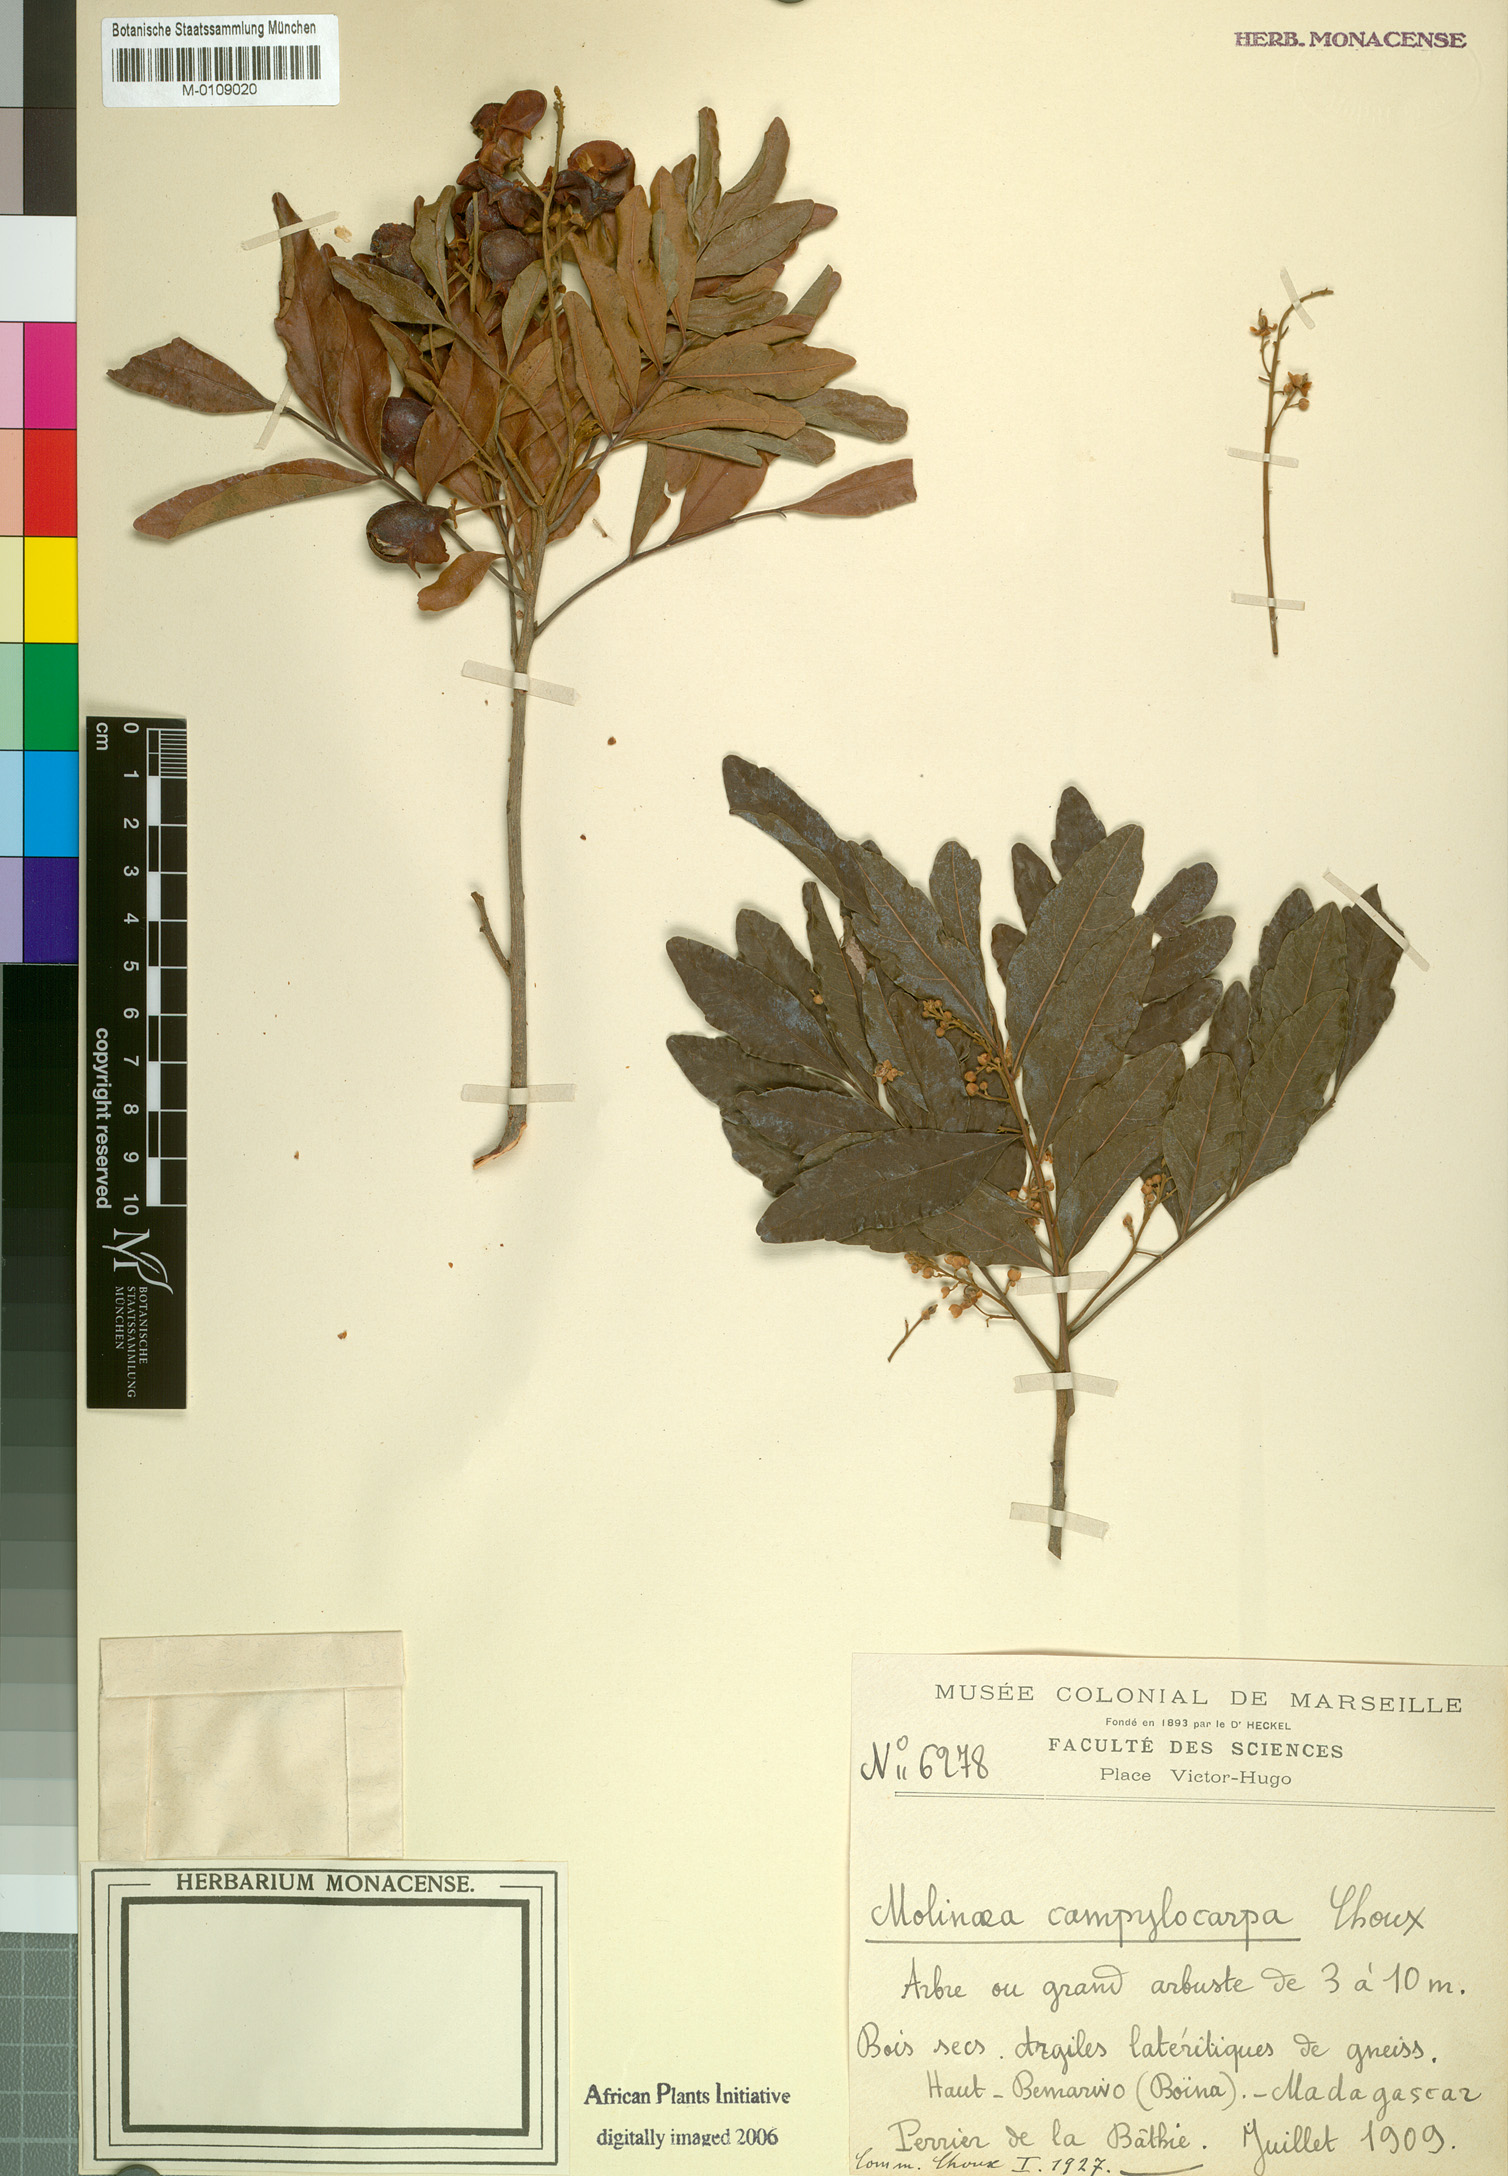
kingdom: Plantae
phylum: Tracheophyta
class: Magnoliopsida
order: Sapindales
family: Sapindaceae
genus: Molinaea
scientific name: Molinaea retusa
